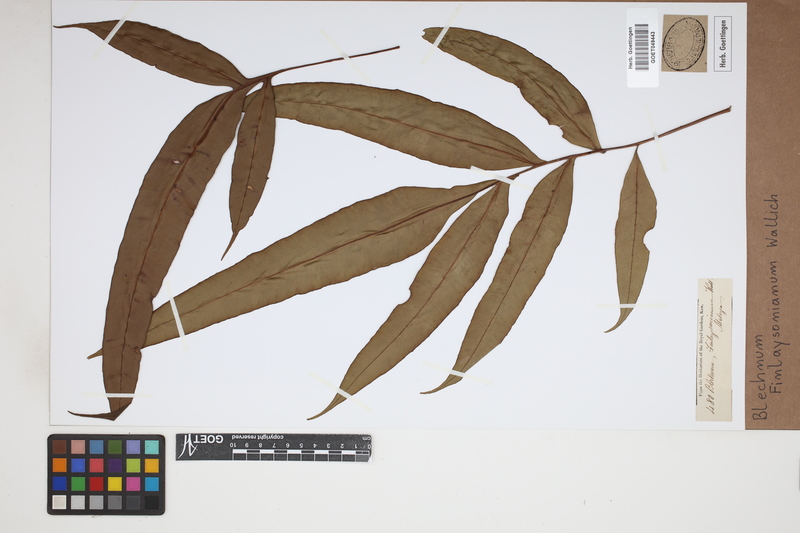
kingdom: Plantae
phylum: Tracheophyta
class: Polypodiopsida
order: Polypodiales
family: Blechnaceae
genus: Blechnopsis
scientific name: Blechnopsis finlaysoniana
